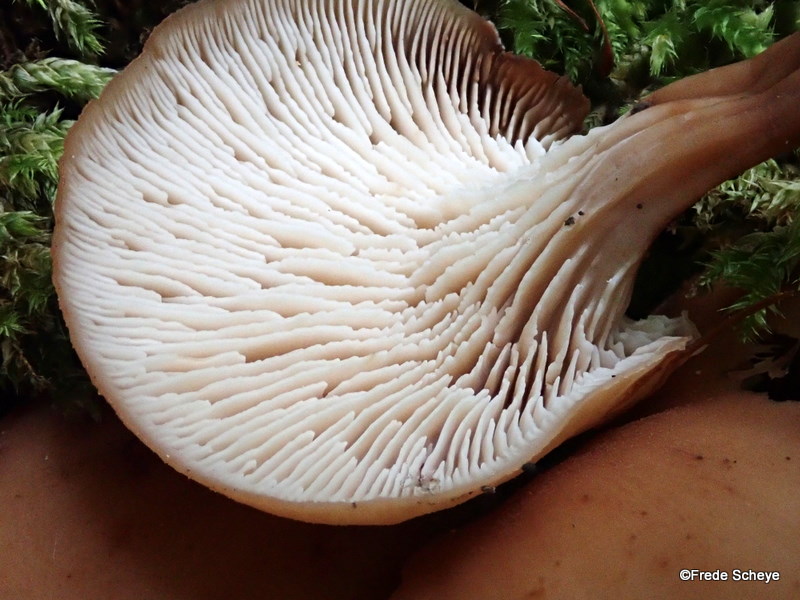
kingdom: Fungi
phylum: Basidiomycota
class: Agaricomycetes
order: Russulales
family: Auriscalpiaceae
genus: Lentinellus
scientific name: Lentinellus cochleatus
